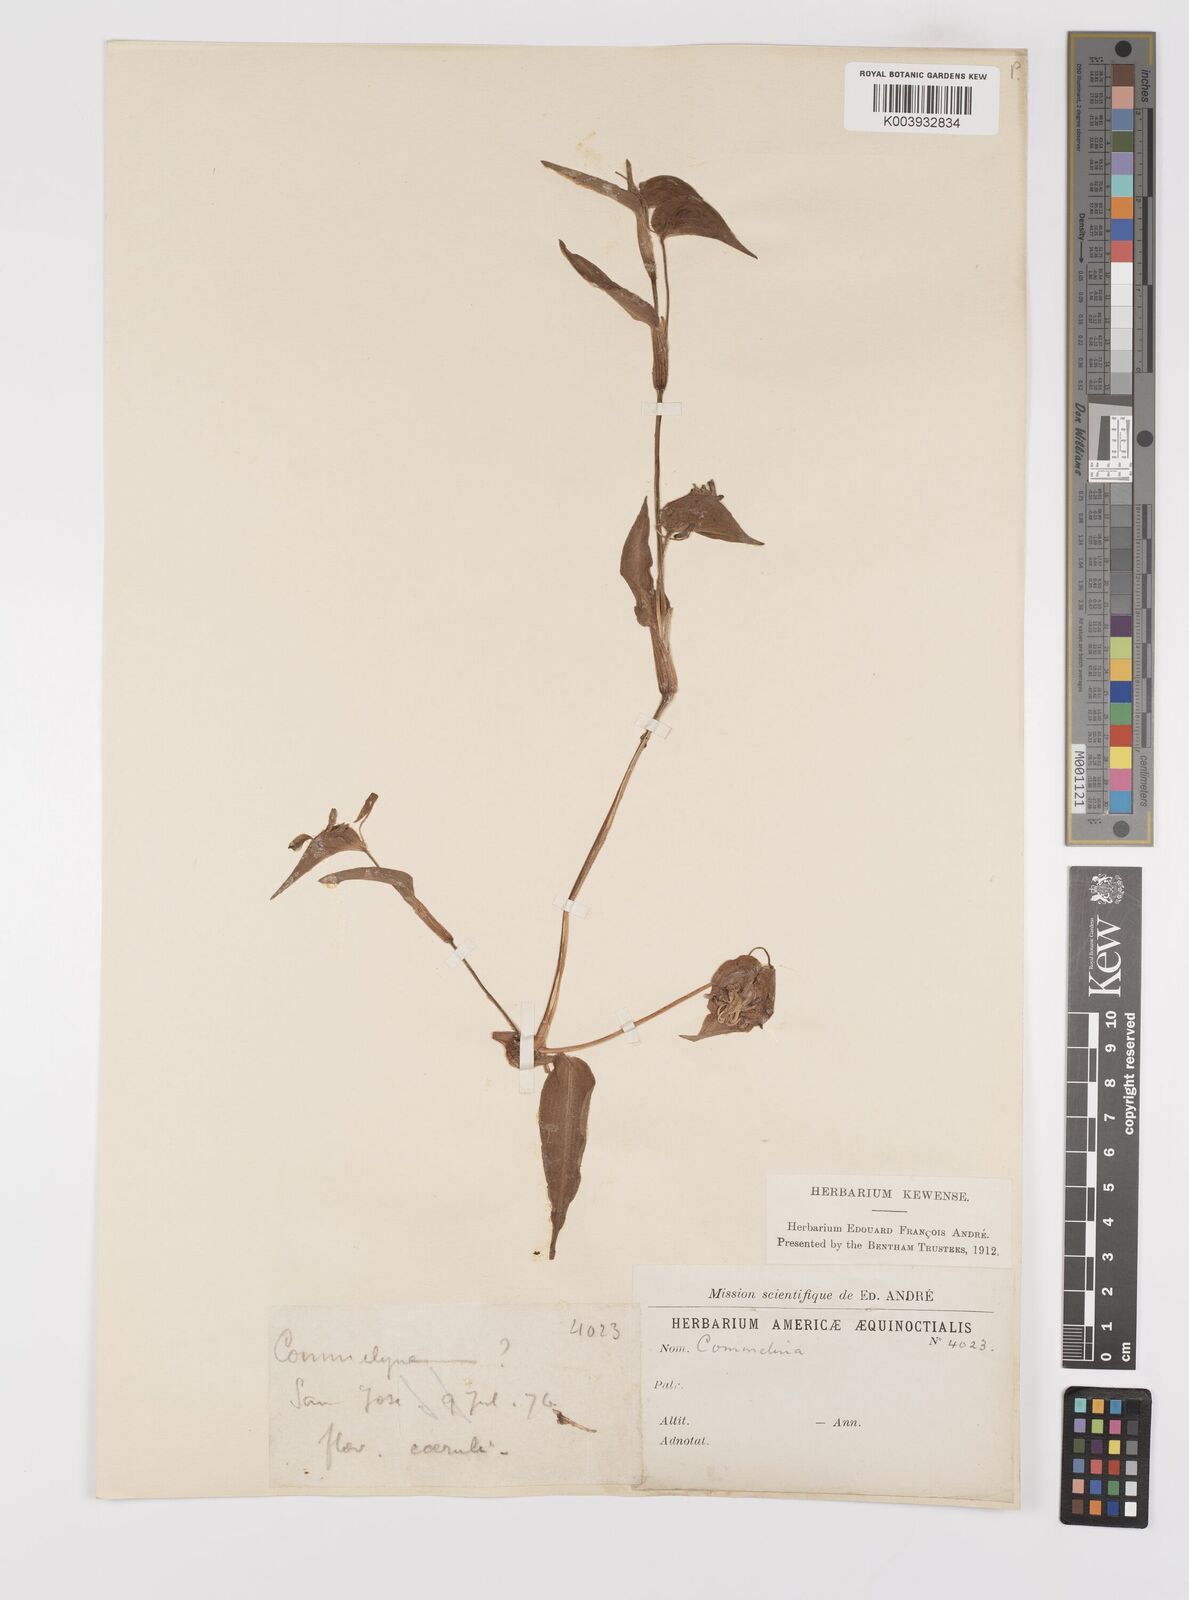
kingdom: Plantae
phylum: Tracheophyta
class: Liliopsida
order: Commelinales
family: Commelinaceae
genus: Commelina
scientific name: Commelina
